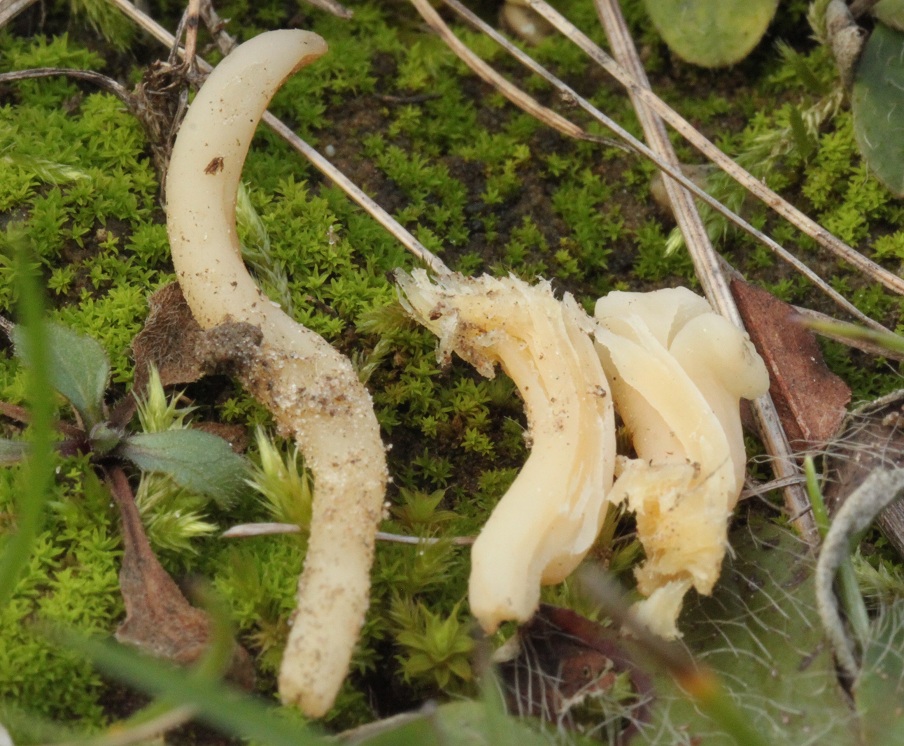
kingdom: Fungi
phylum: Basidiomycota
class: Agaricomycetes
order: Agaricales
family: Clavariaceae
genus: Clavaria
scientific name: Clavaria amoenoides
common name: bleggul køllesvamp
